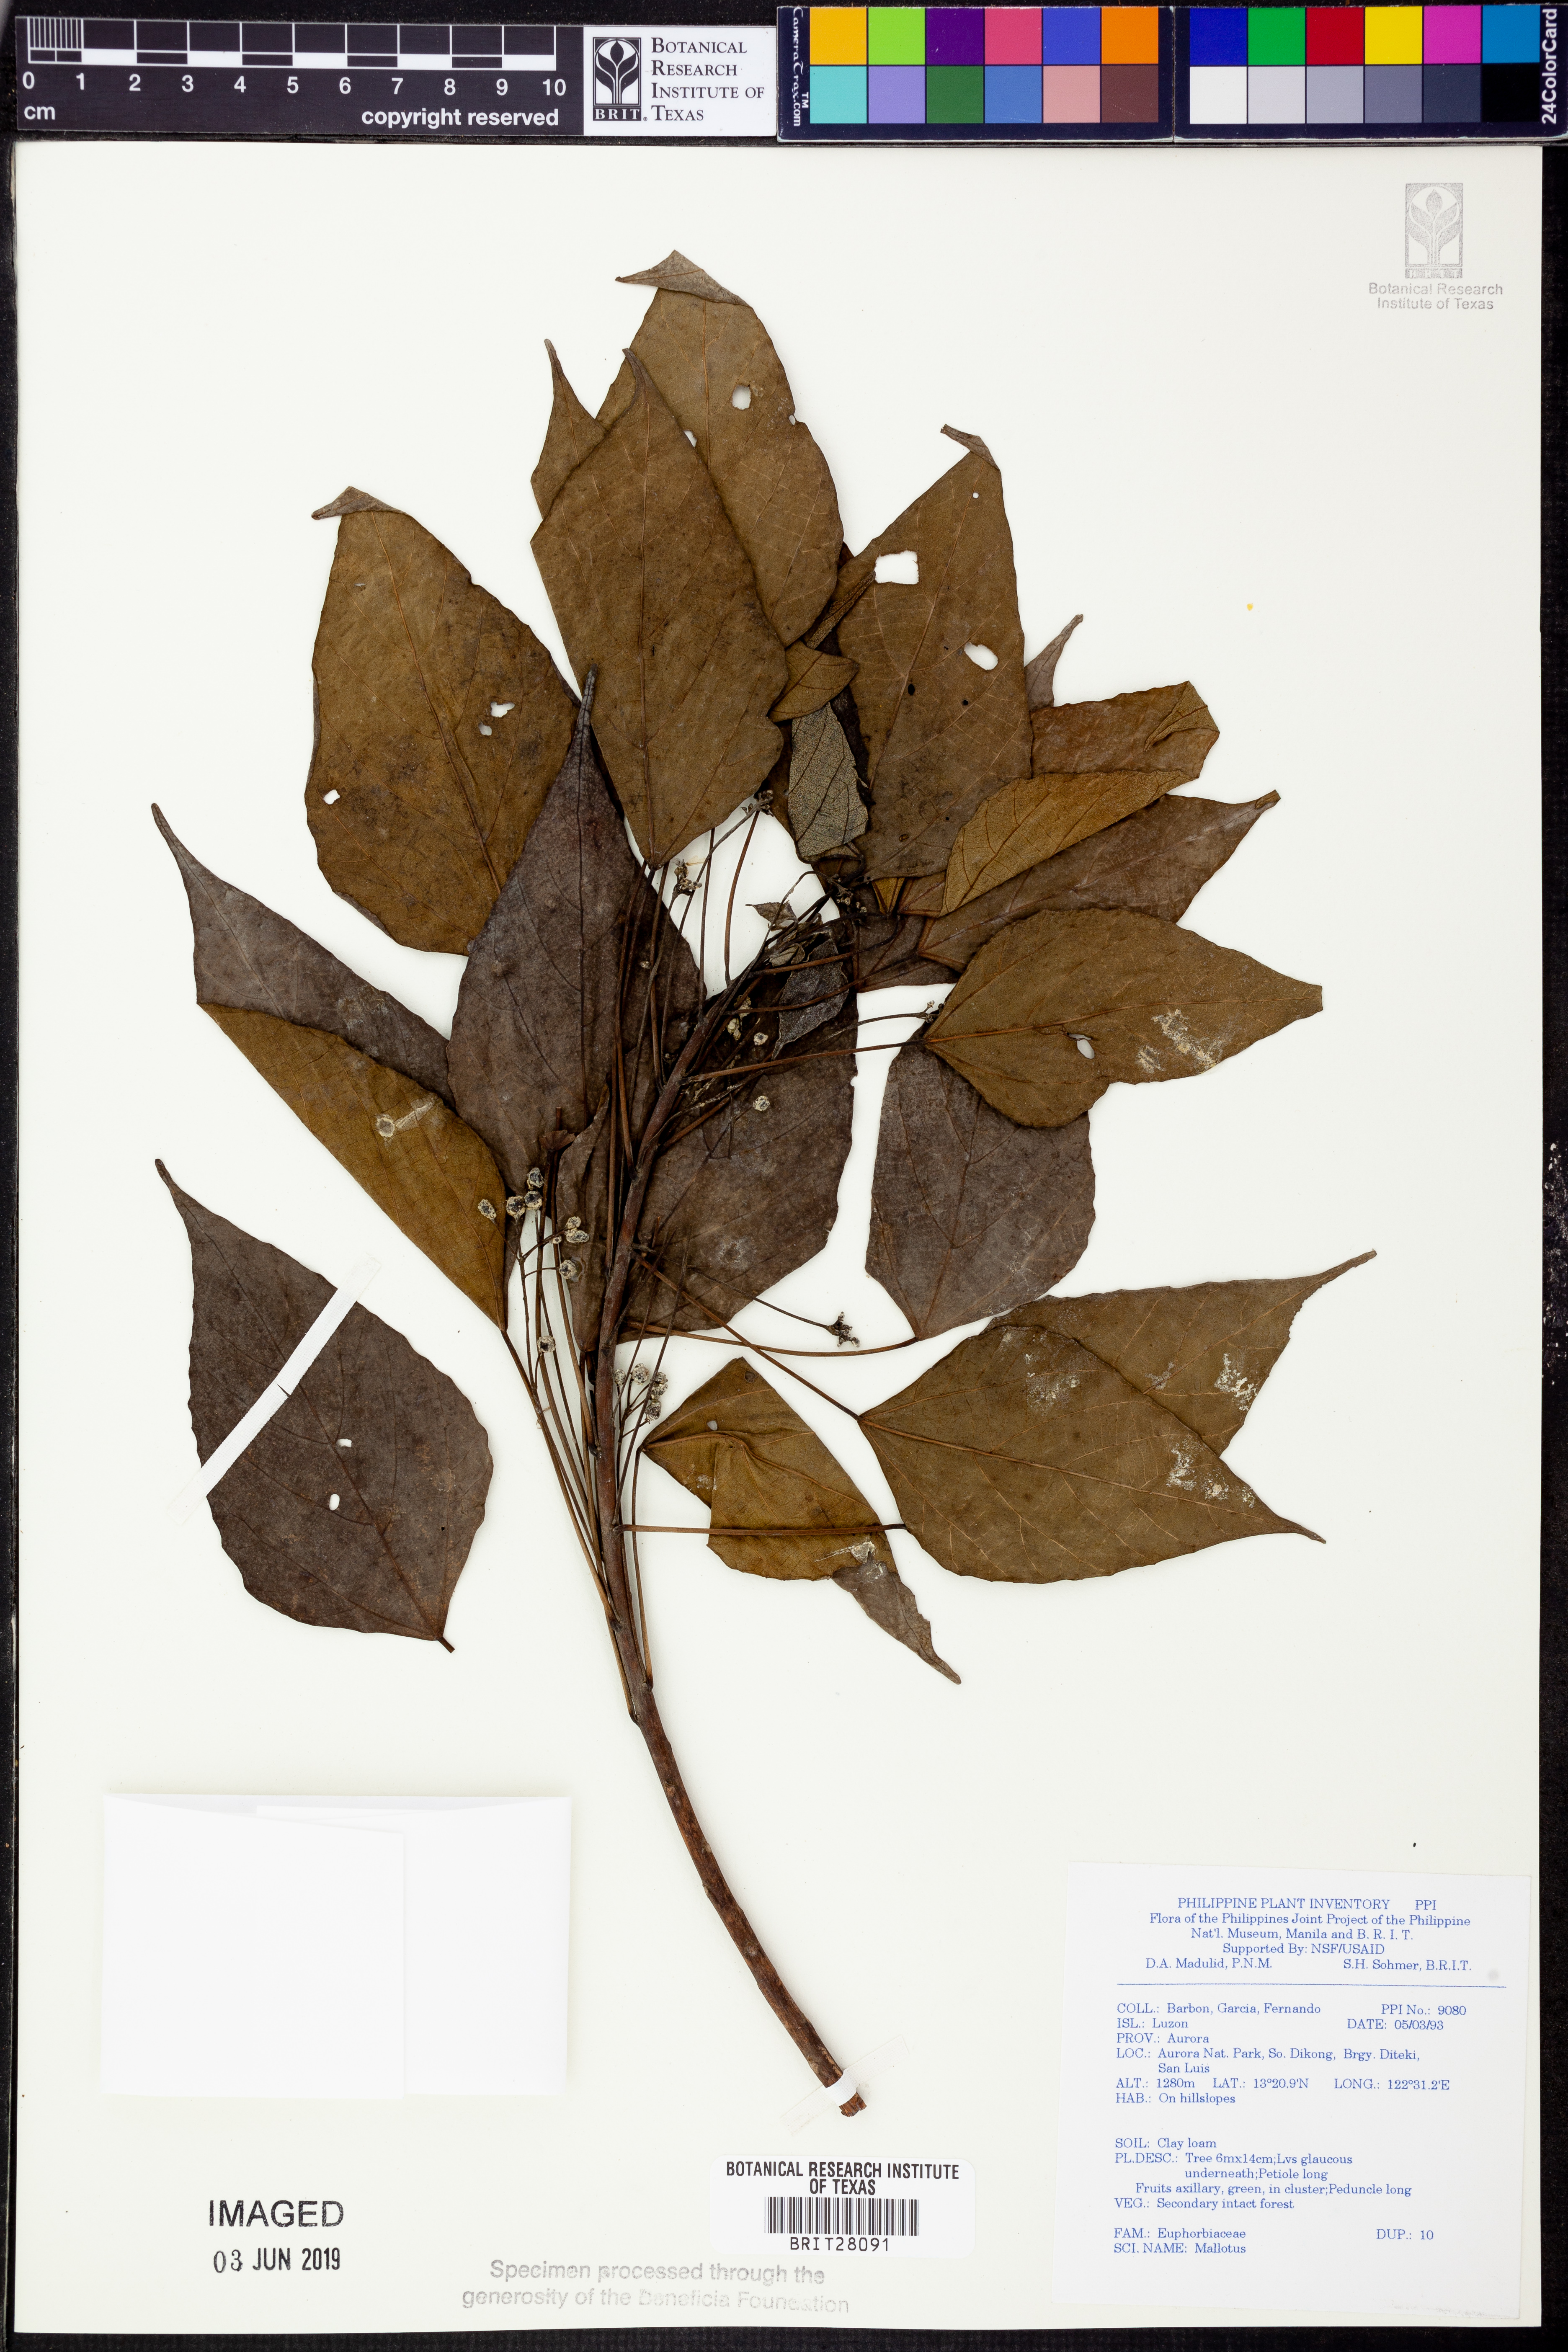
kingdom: Plantae
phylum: Tracheophyta
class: Magnoliopsida
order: Malpighiales
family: Euphorbiaceae
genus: Mallotus
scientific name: Mallotus
